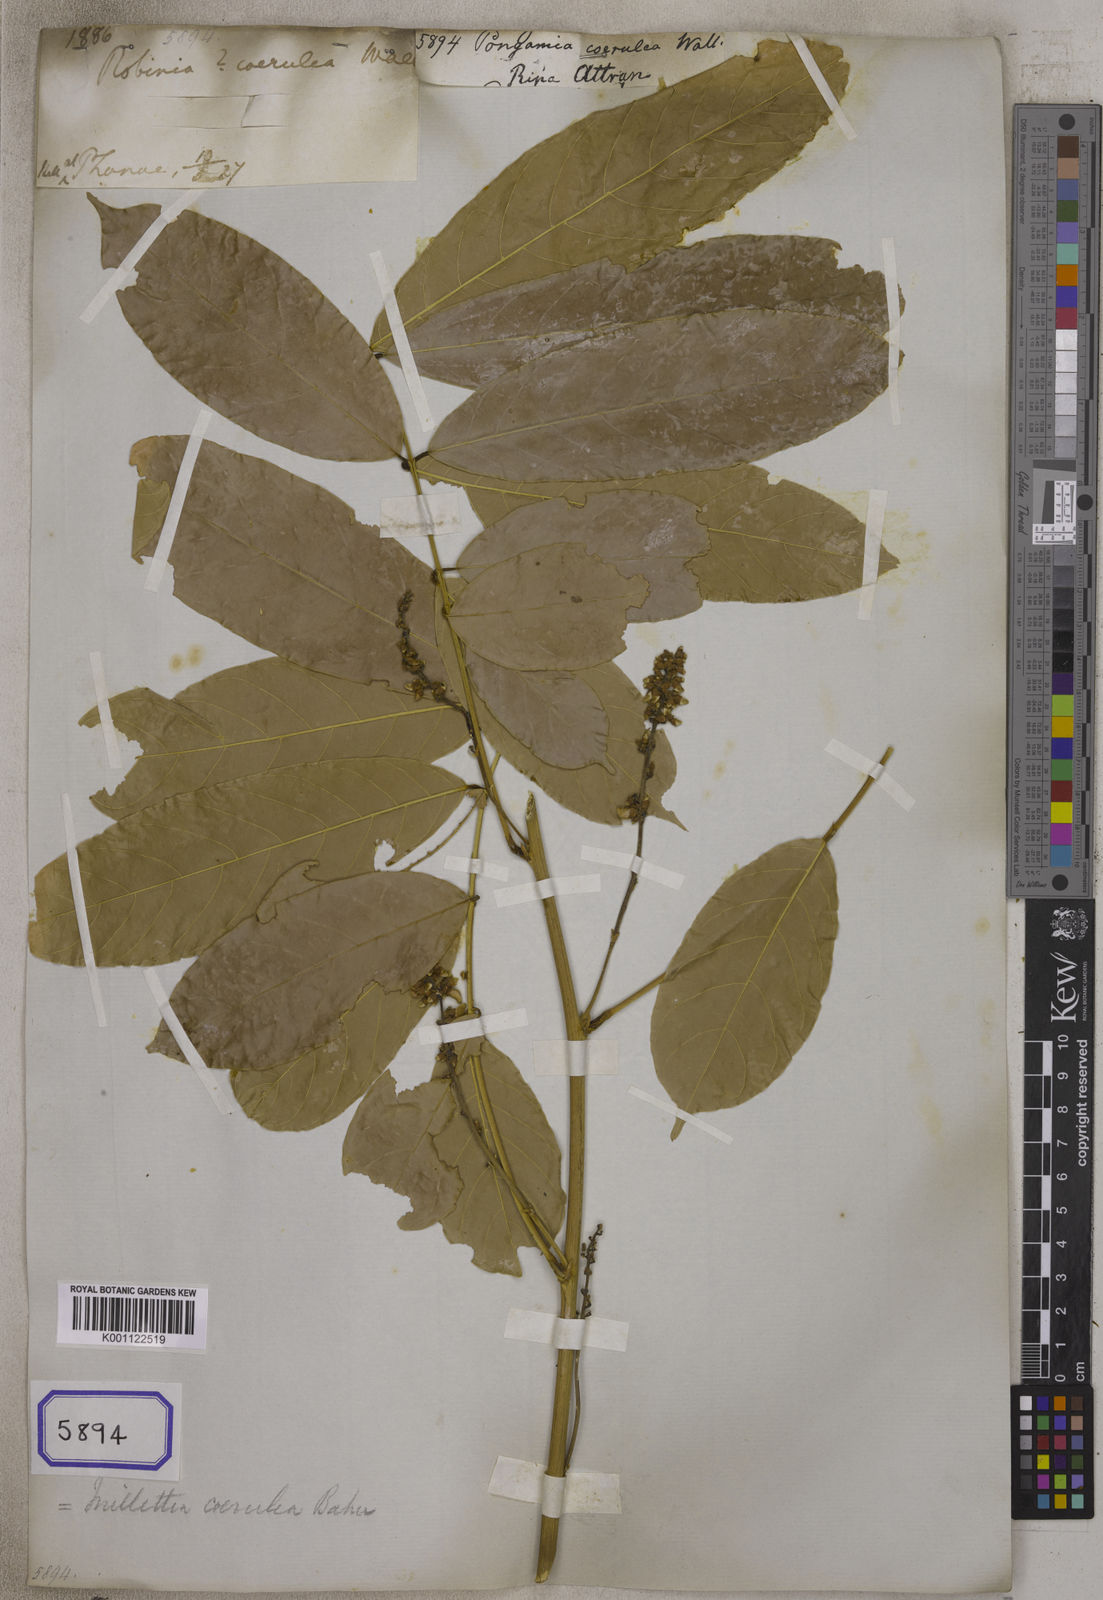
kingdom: Plantae
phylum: Tracheophyta
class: Magnoliopsida
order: Fabales
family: Fabaceae
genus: Pongamia
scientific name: Pongamia
